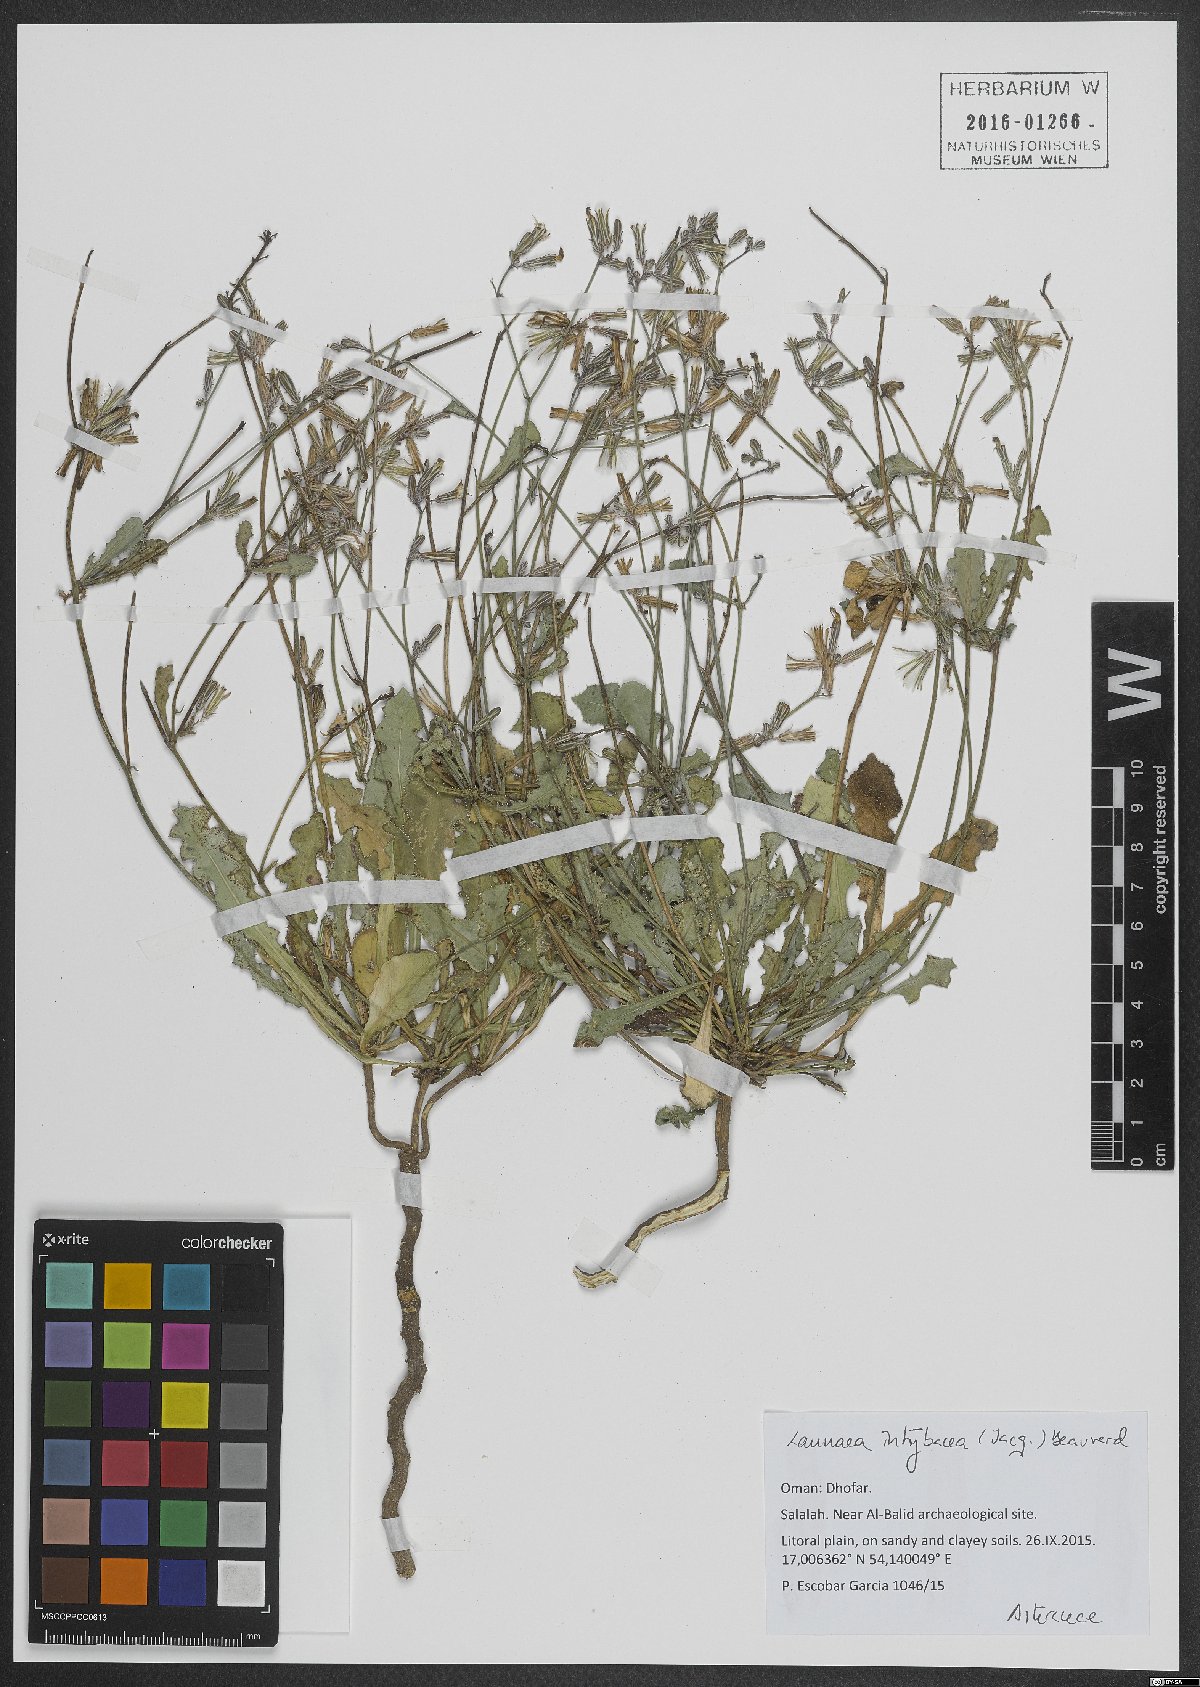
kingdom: Plantae
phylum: Tracheophyta
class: Magnoliopsida
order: Asterales
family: Asteraceae
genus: Launaea
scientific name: Launaea intybacea
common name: Achicoria azul
